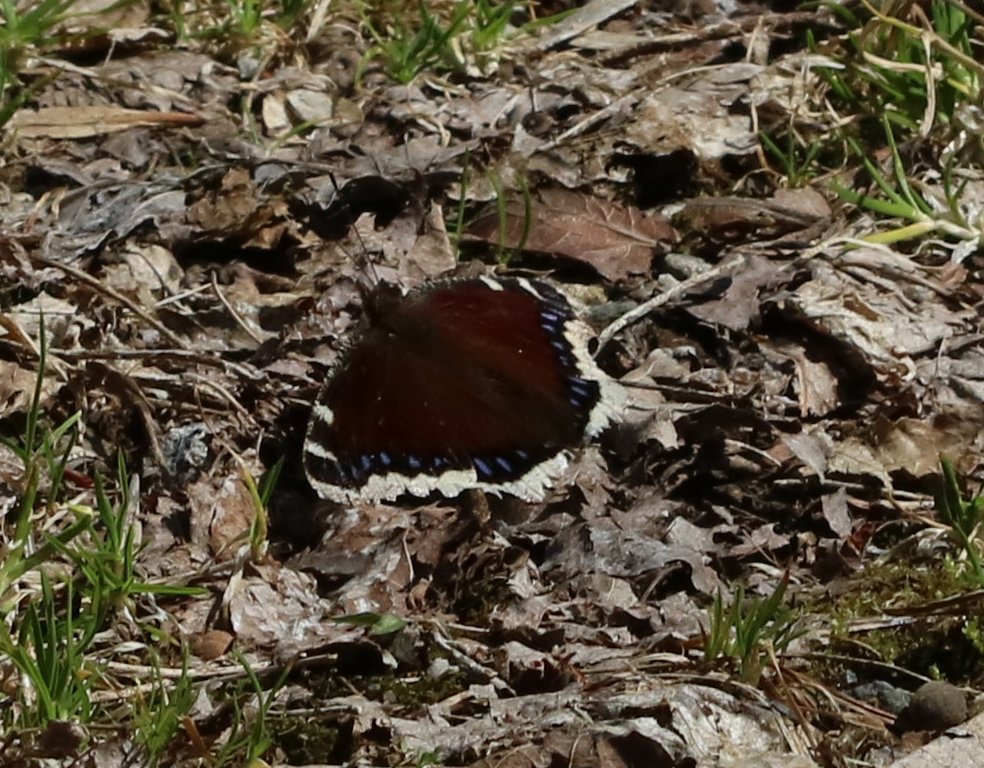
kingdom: Animalia
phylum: Arthropoda
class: Insecta
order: Lepidoptera
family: Nymphalidae
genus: Nymphalis
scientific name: Nymphalis antiopa
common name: Mourning Cloak
